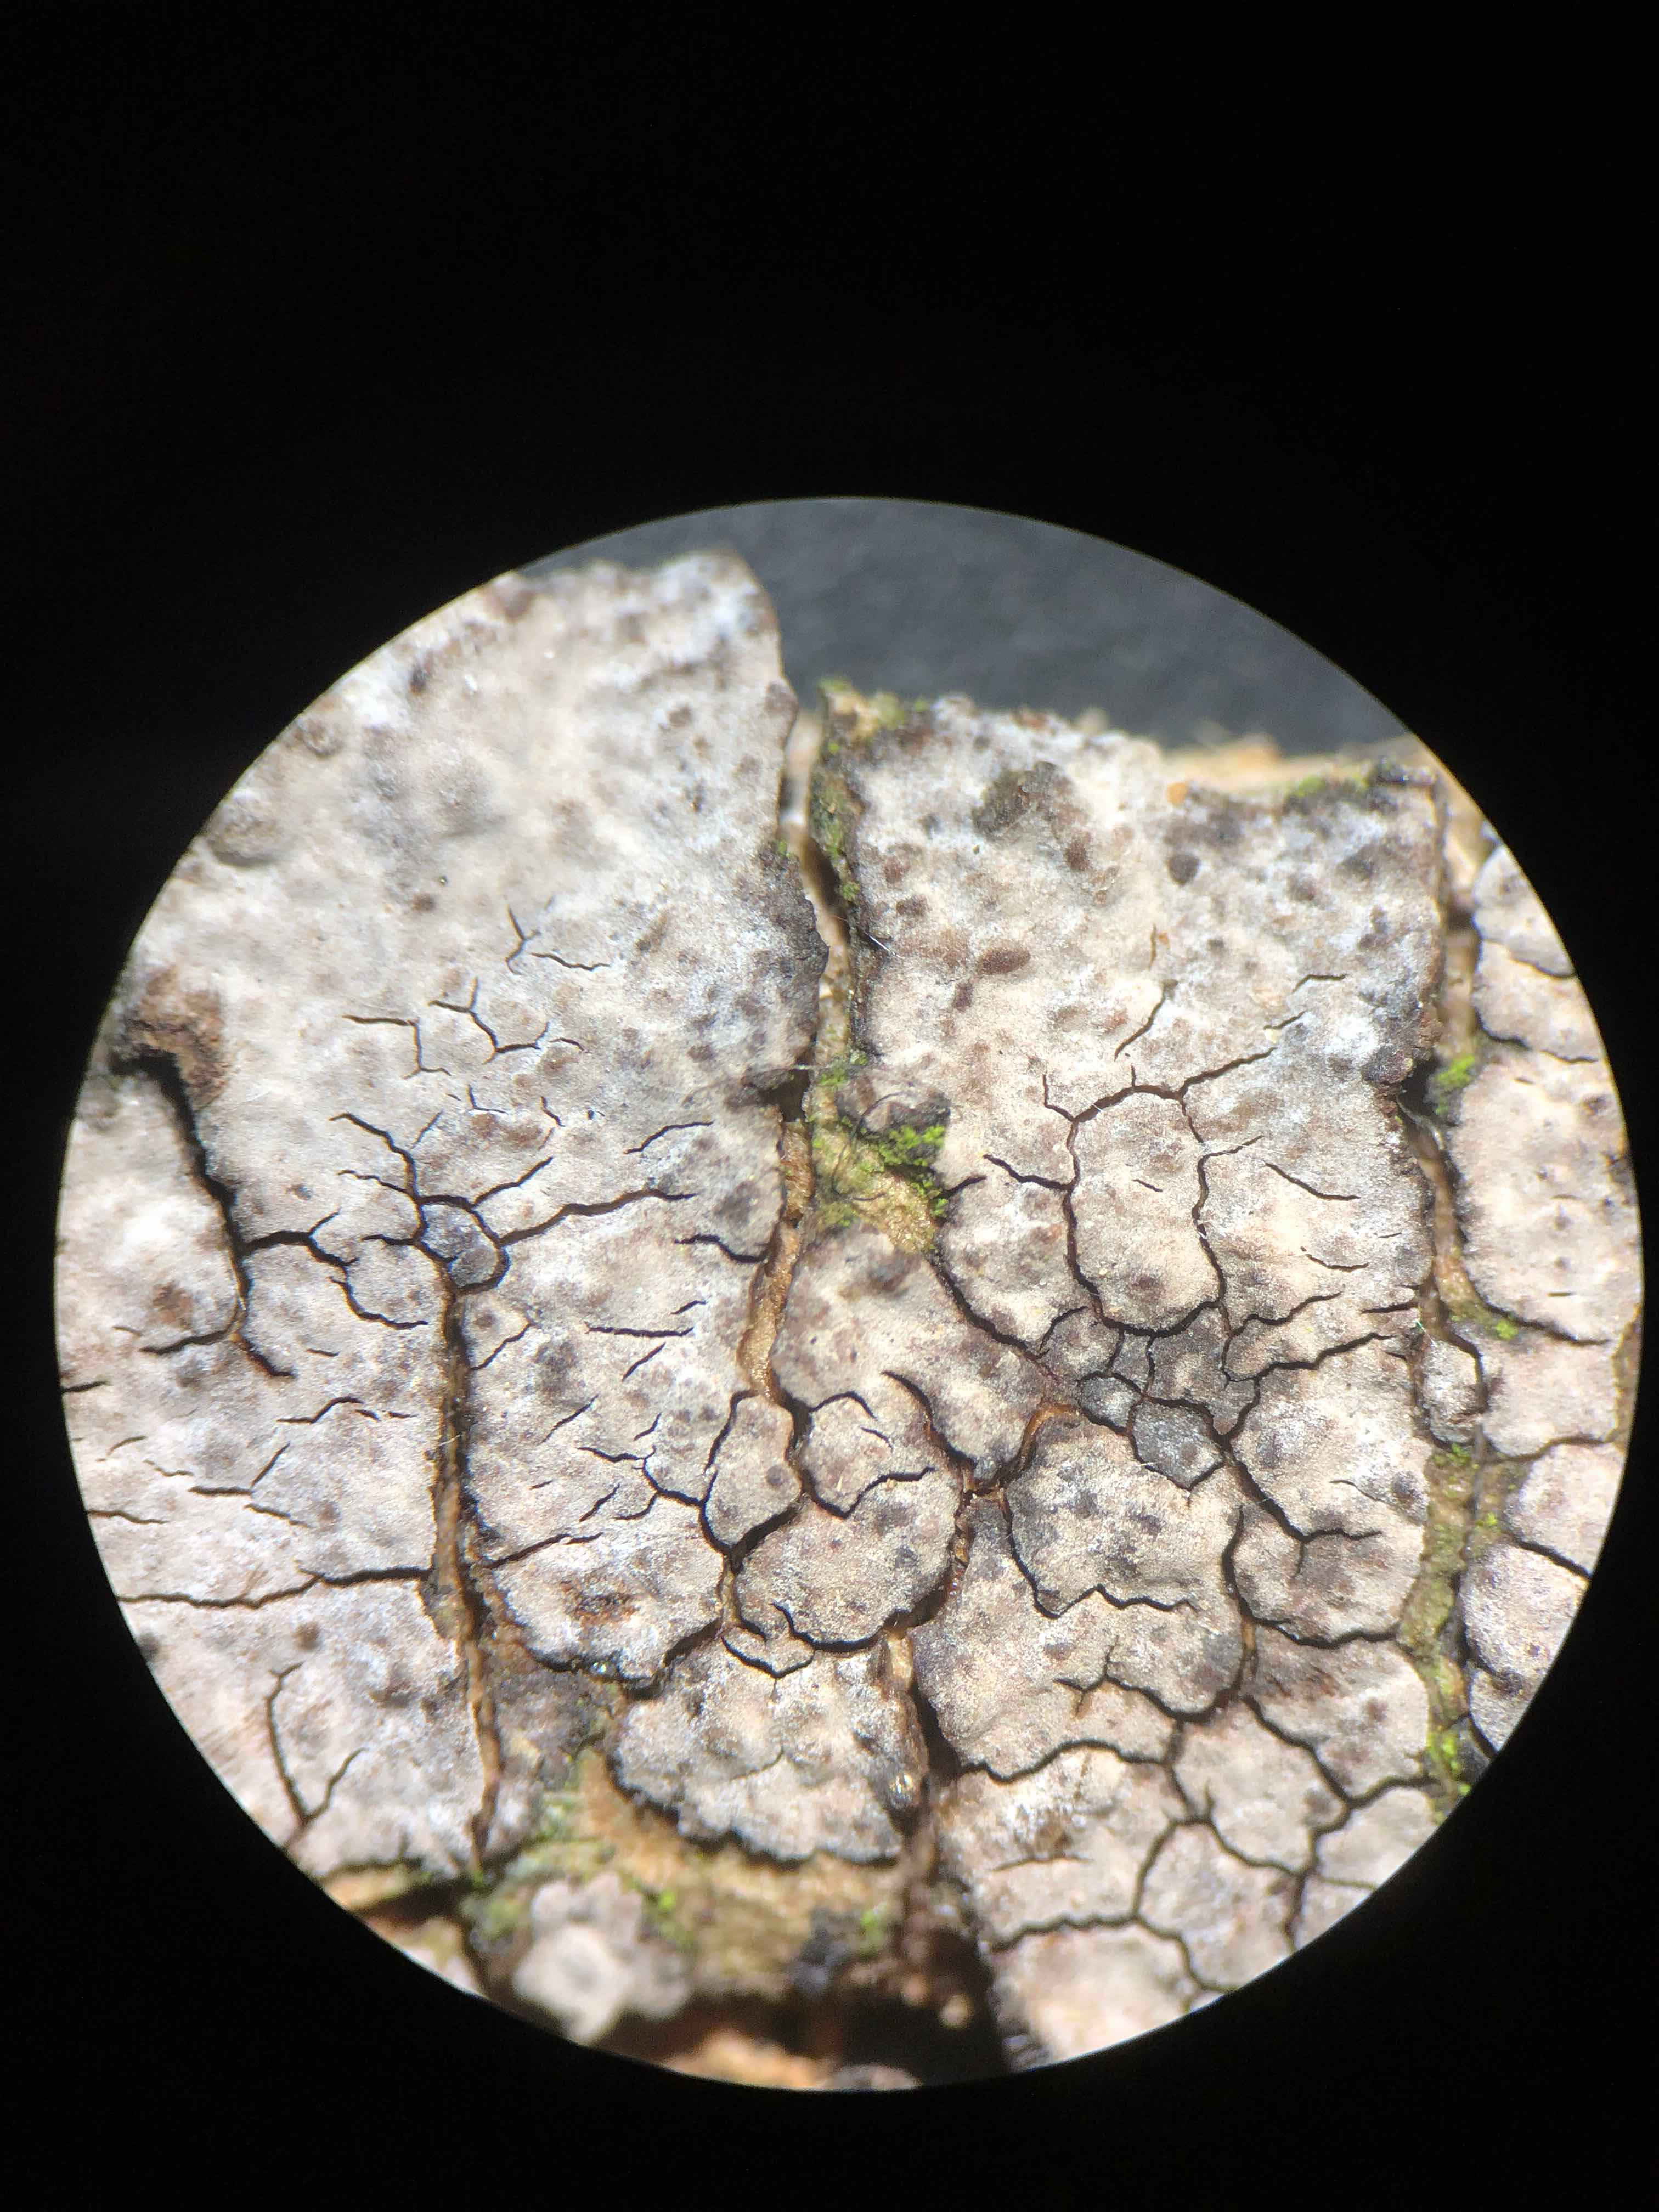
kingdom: Fungi
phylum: Basidiomycota
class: Agaricomycetes
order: Russulales
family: Peniophoraceae
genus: Peniophora
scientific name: Peniophora lycii
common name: grynet voksskind
